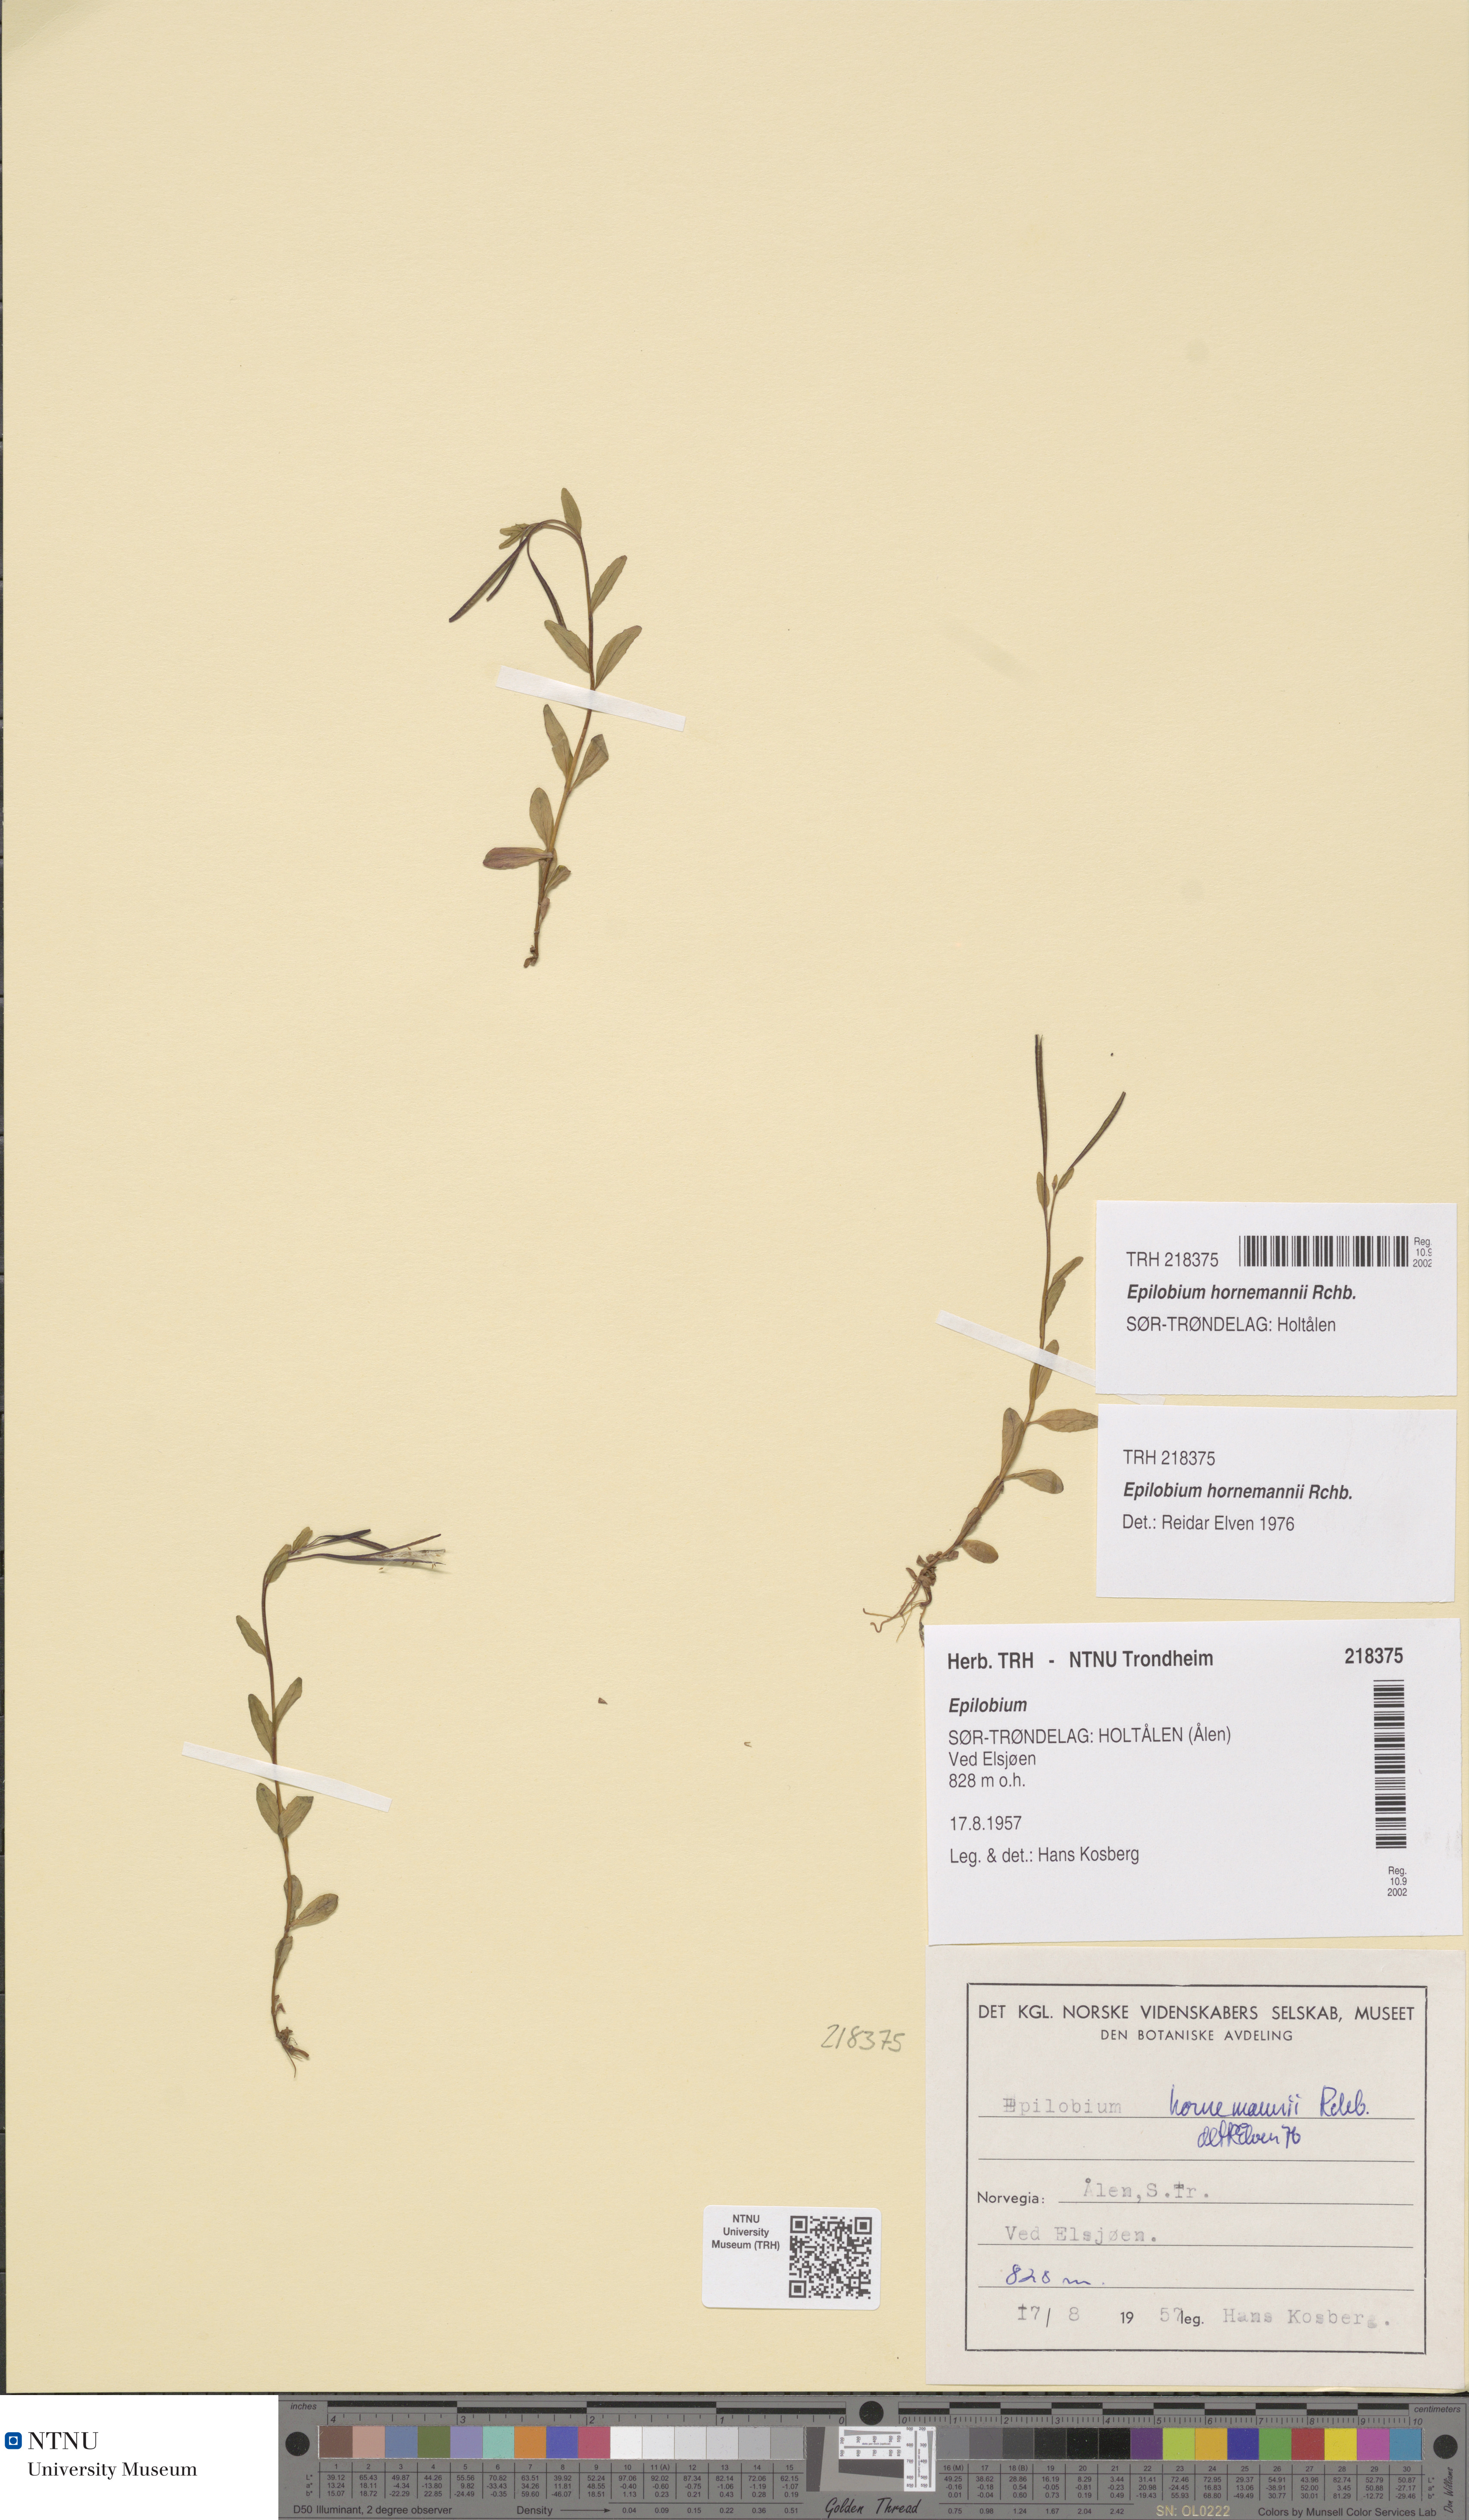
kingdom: Plantae
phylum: Tracheophyta
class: Magnoliopsida
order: Myrtales
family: Onagraceae
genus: Epilobium
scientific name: Epilobium hornemannii
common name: Hornemann's willowherb
